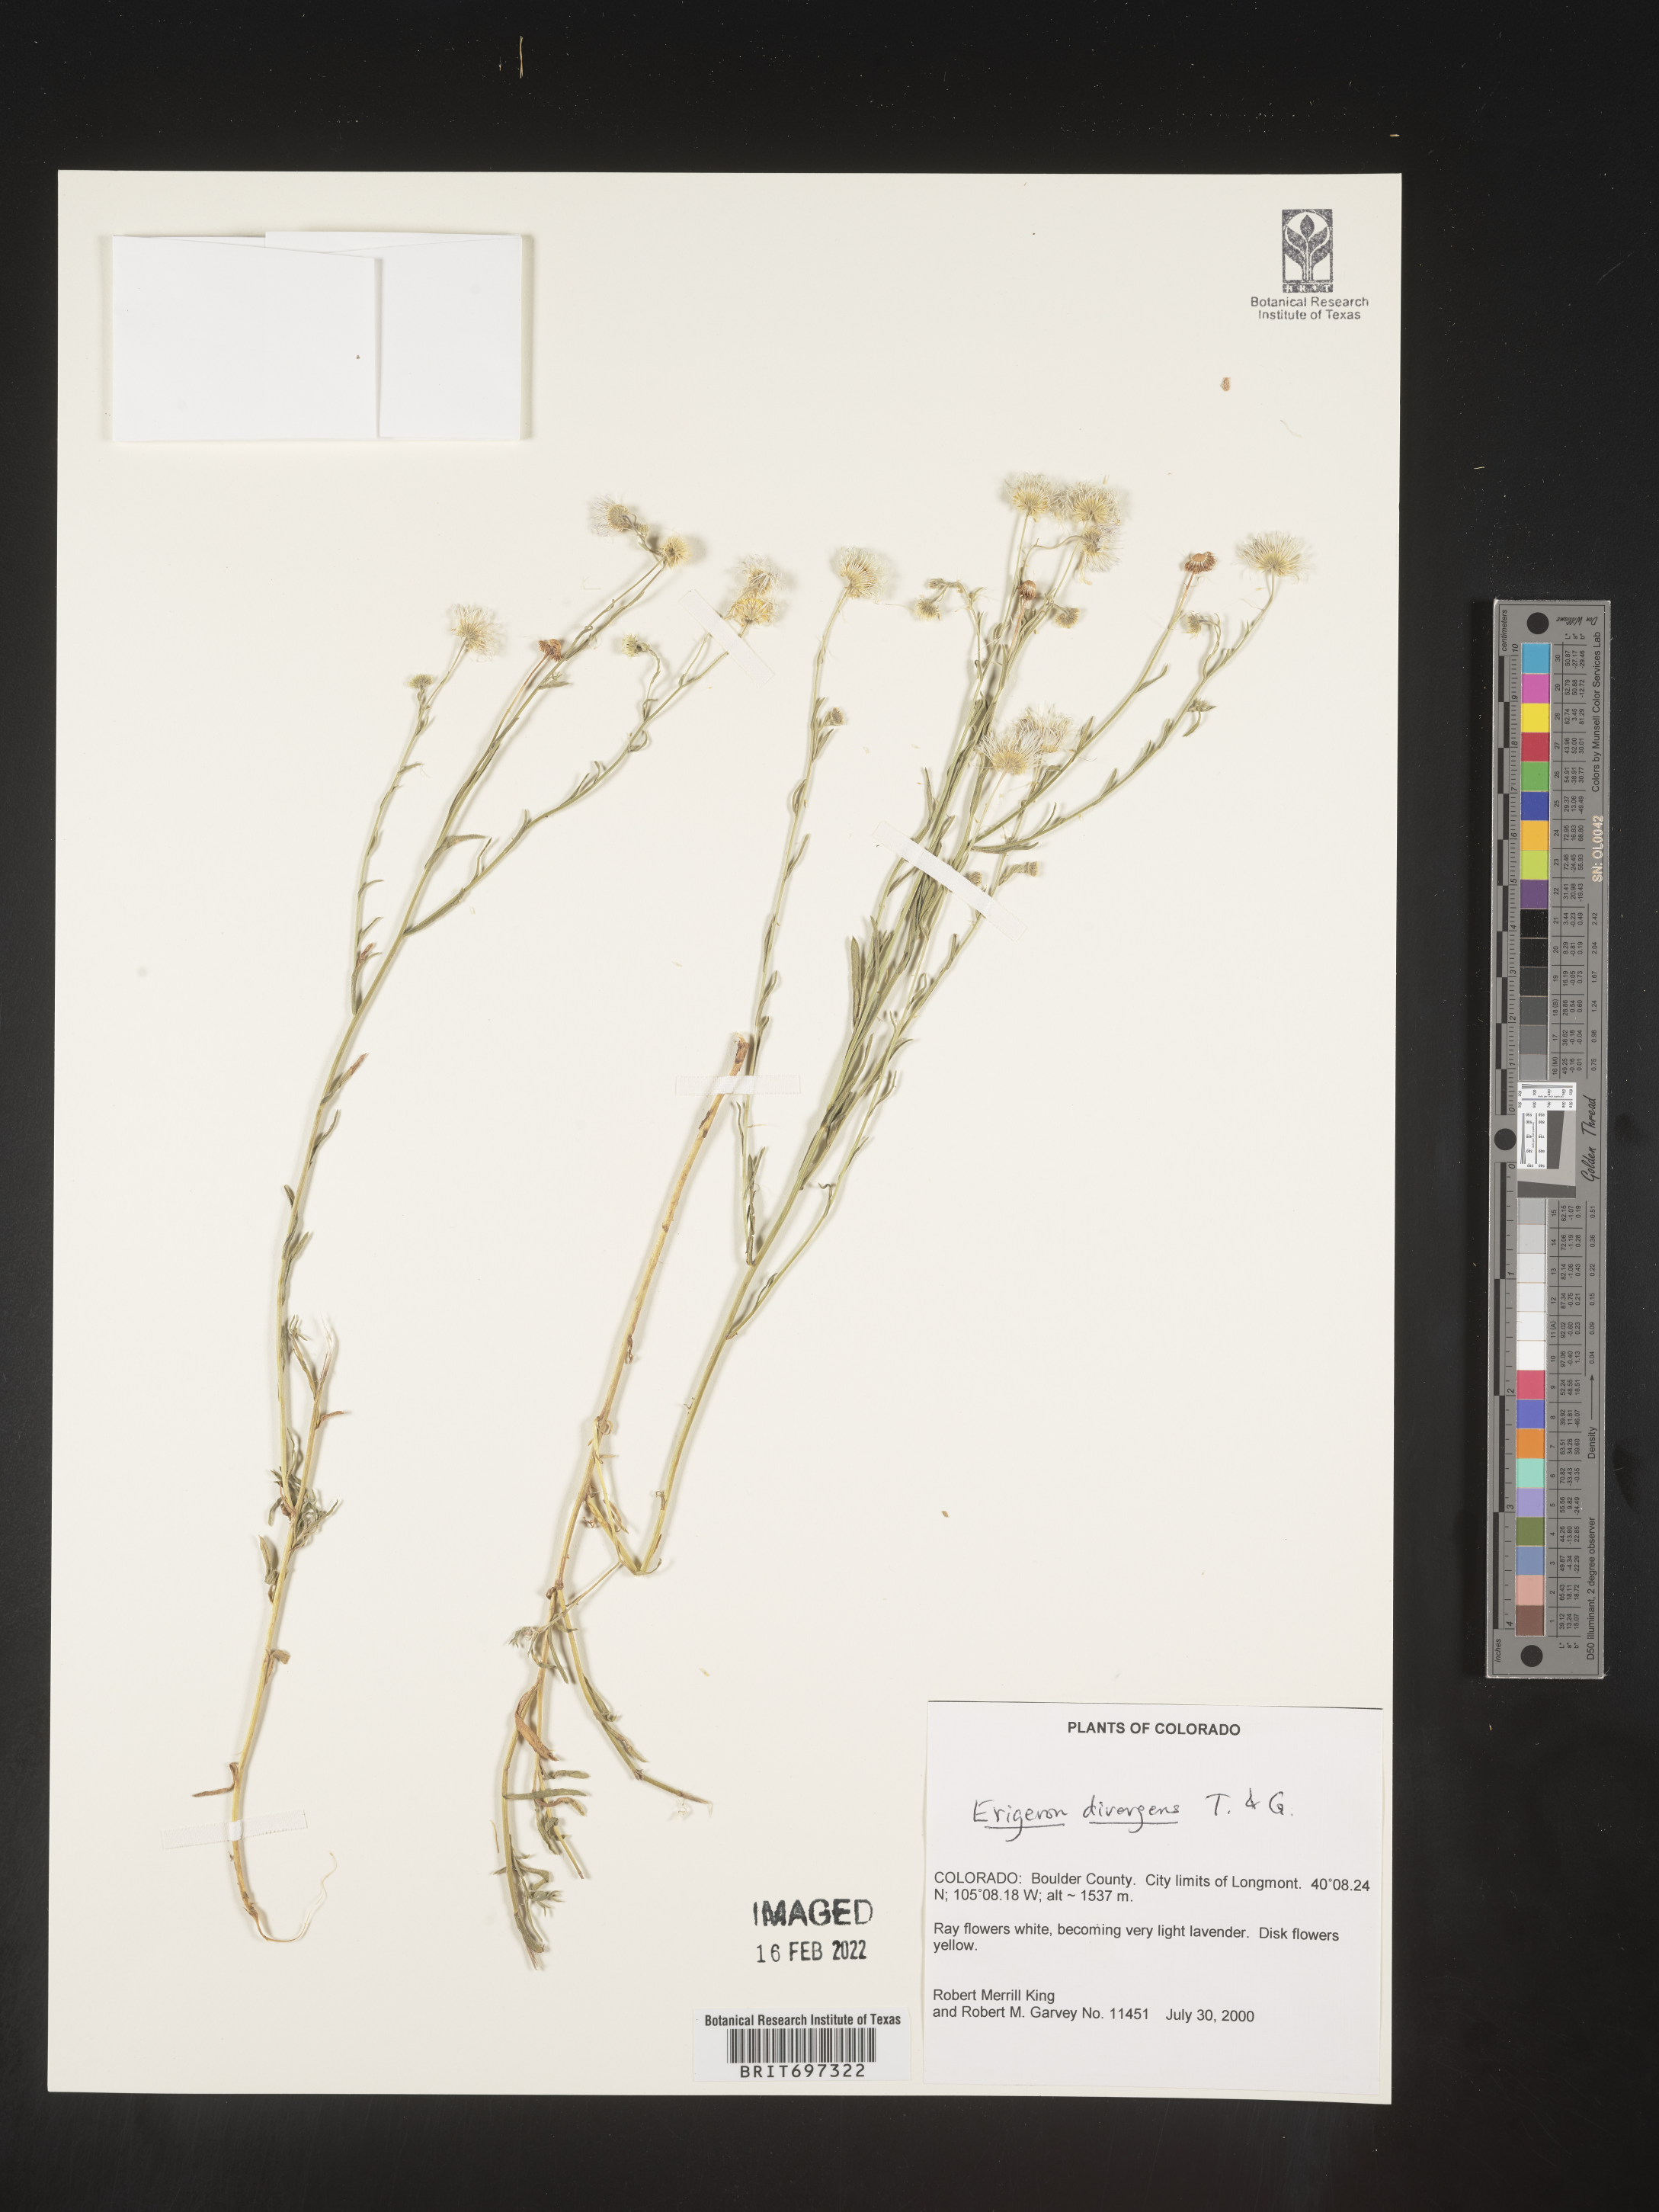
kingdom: Plantae
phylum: Tracheophyta
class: Magnoliopsida
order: Asterales
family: Asteraceae
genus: Erigeron
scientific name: Erigeron divergens
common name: Diffuse fleabane
